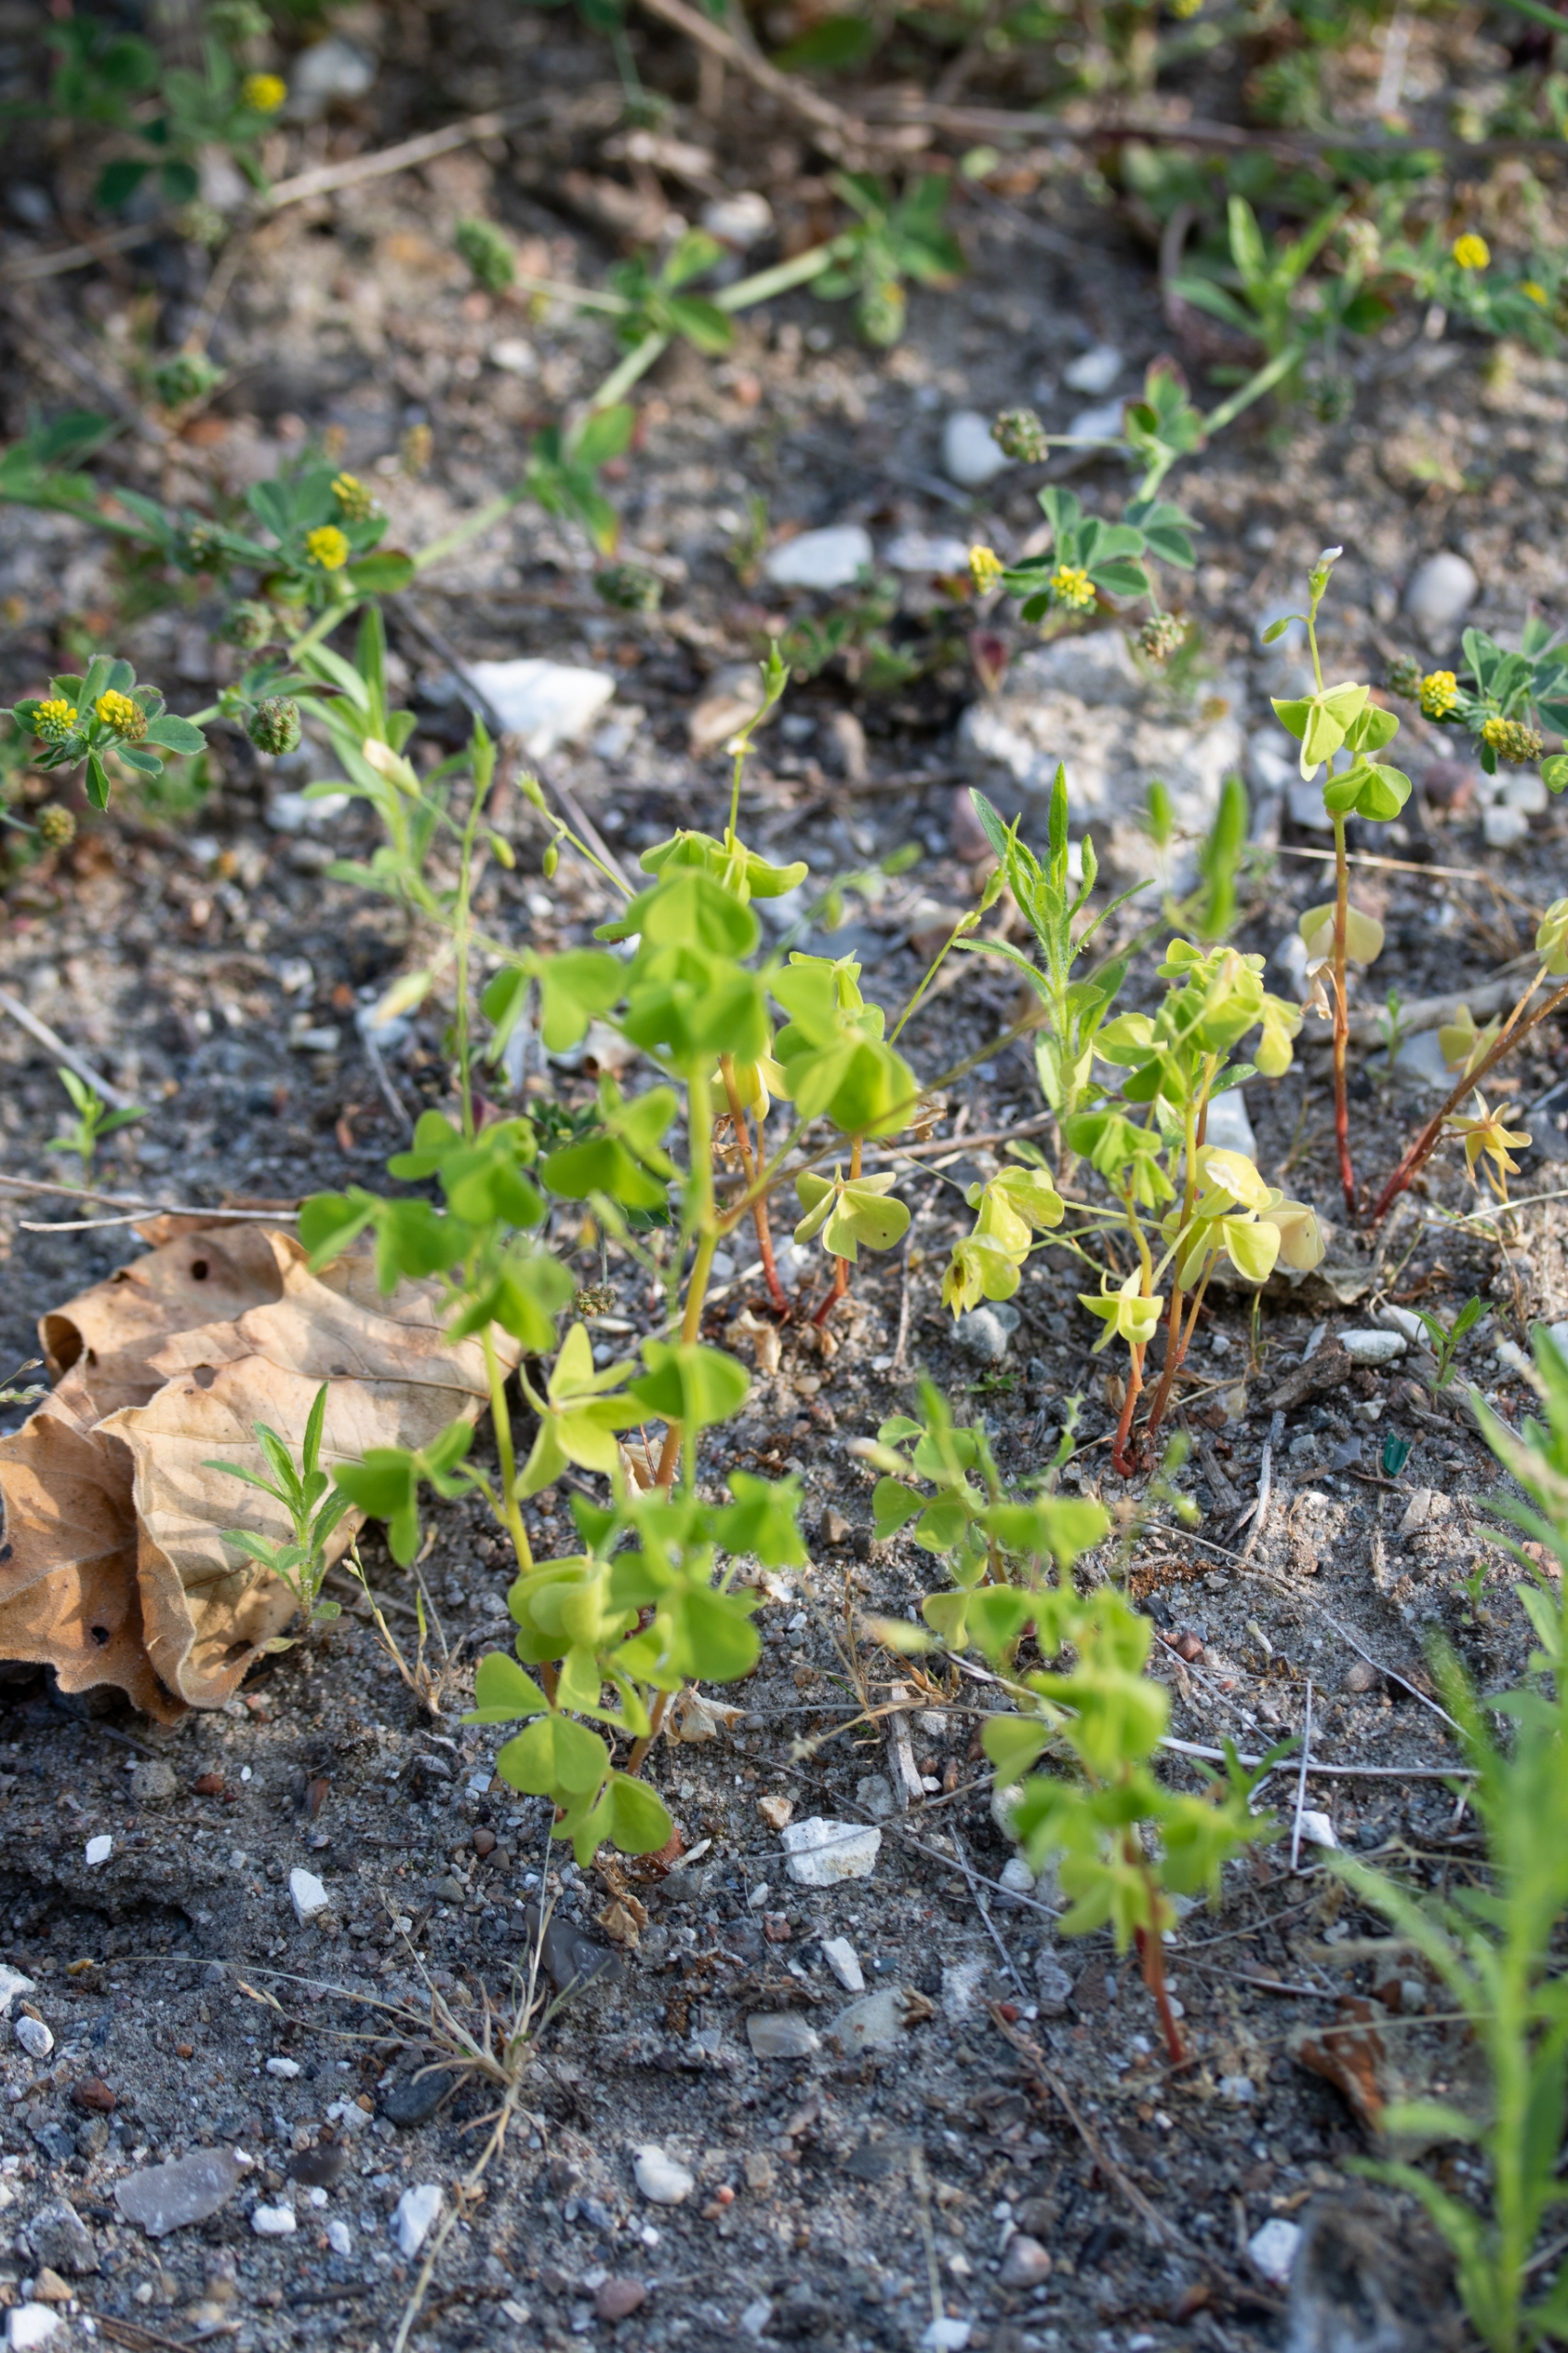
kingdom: Plantae
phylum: Tracheophyta
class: Magnoliopsida
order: Oxalidales
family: Oxalidaceae
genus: Oxalis
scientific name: Oxalis stricta
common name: Rank surkløver
